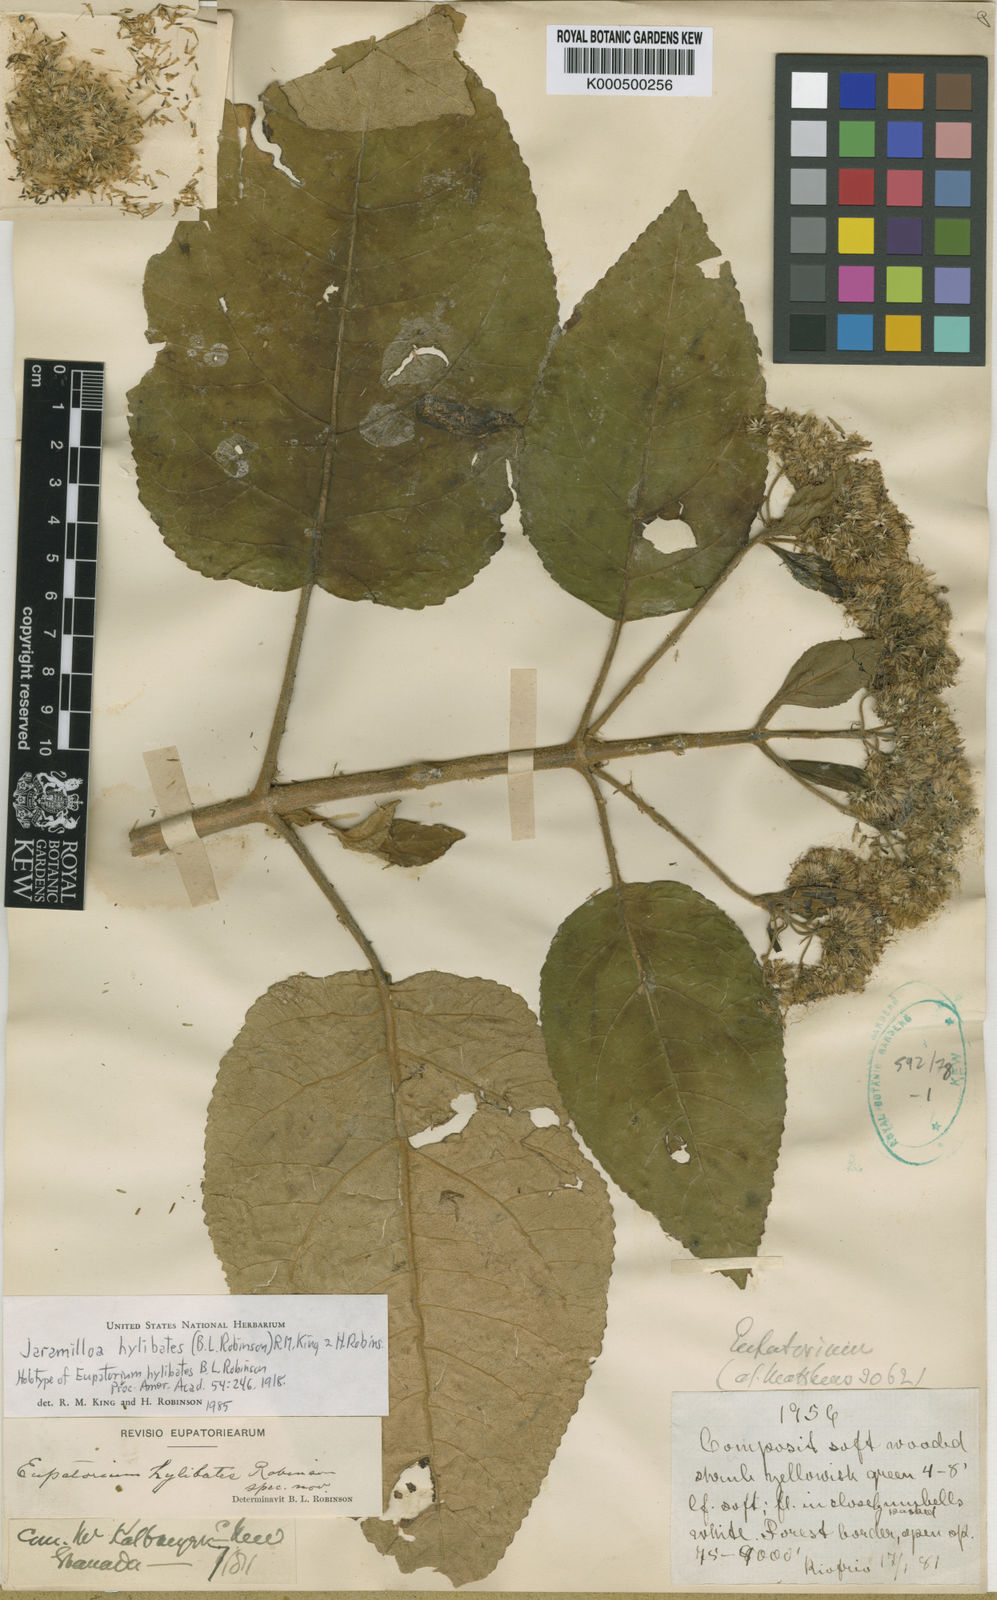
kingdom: Plantae
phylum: Tracheophyta
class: Magnoliopsida
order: Asterales
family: Asteraceae
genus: Jaramilloa
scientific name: Jaramilloa hylibates
